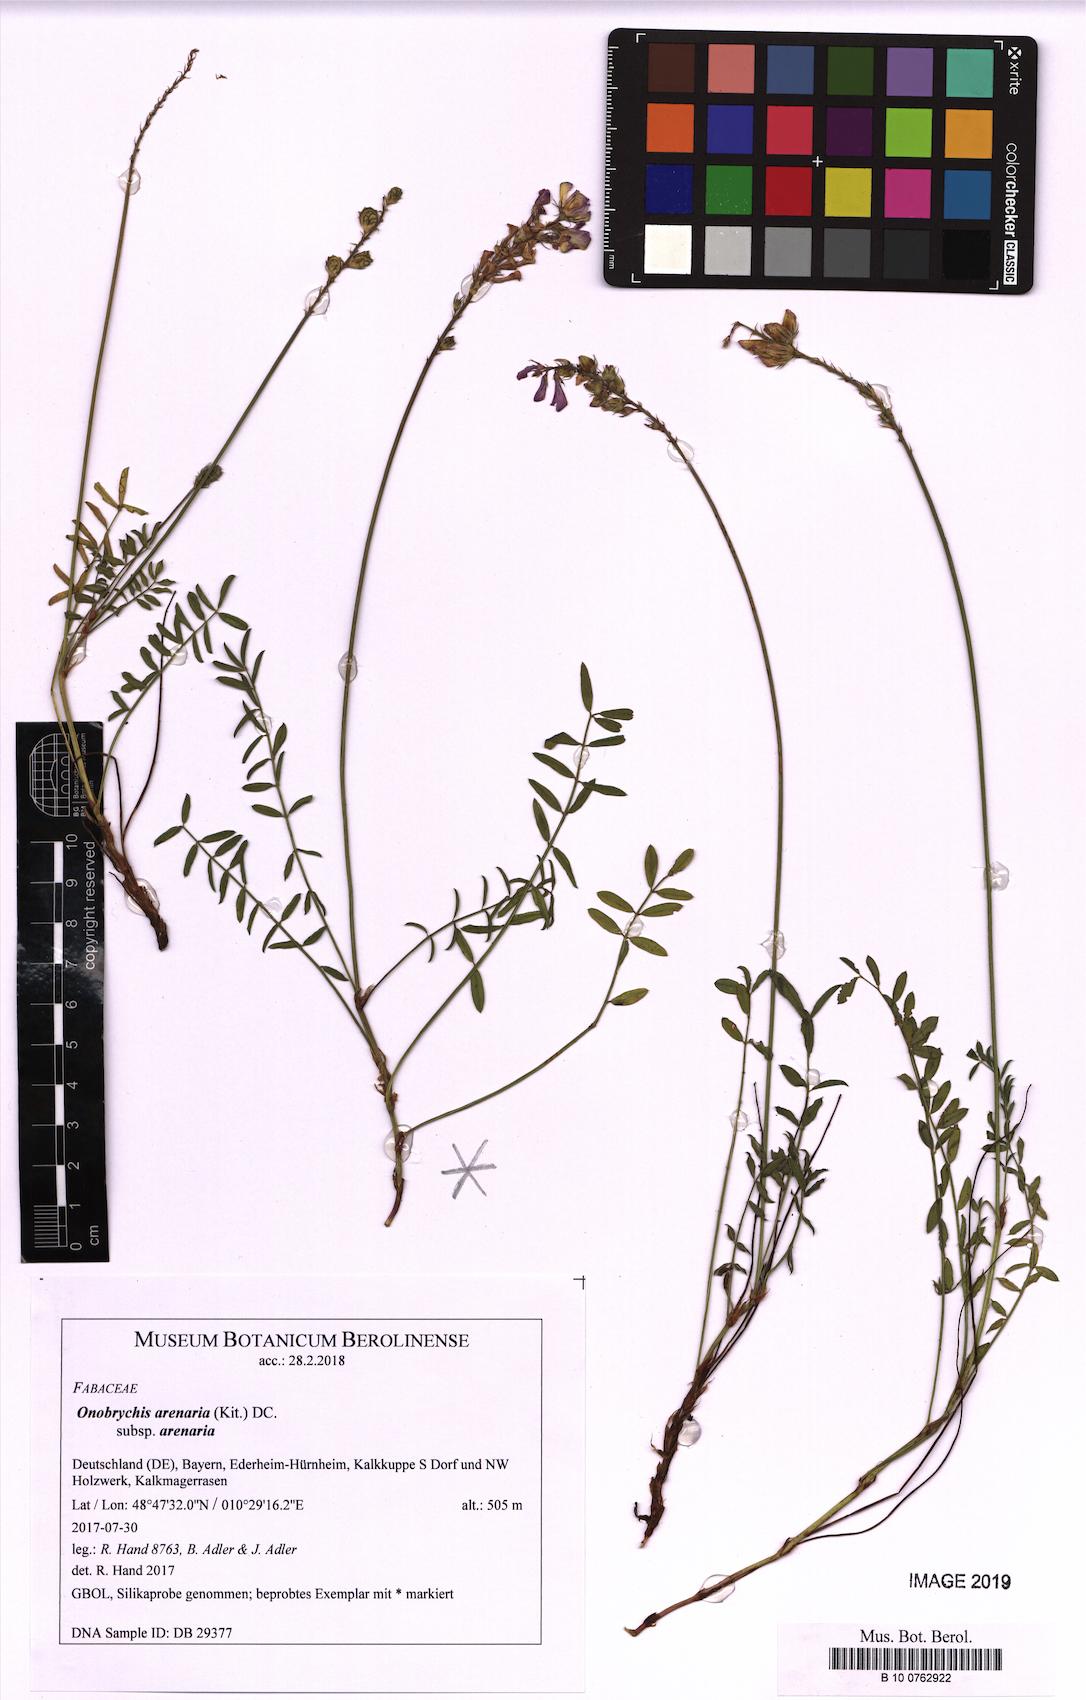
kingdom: Plantae
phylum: Tracheophyta
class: Magnoliopsida
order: Fabales
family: Fabaceae
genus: Onobrychis
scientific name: Onobrychis arenaria
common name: Sand esparcet
